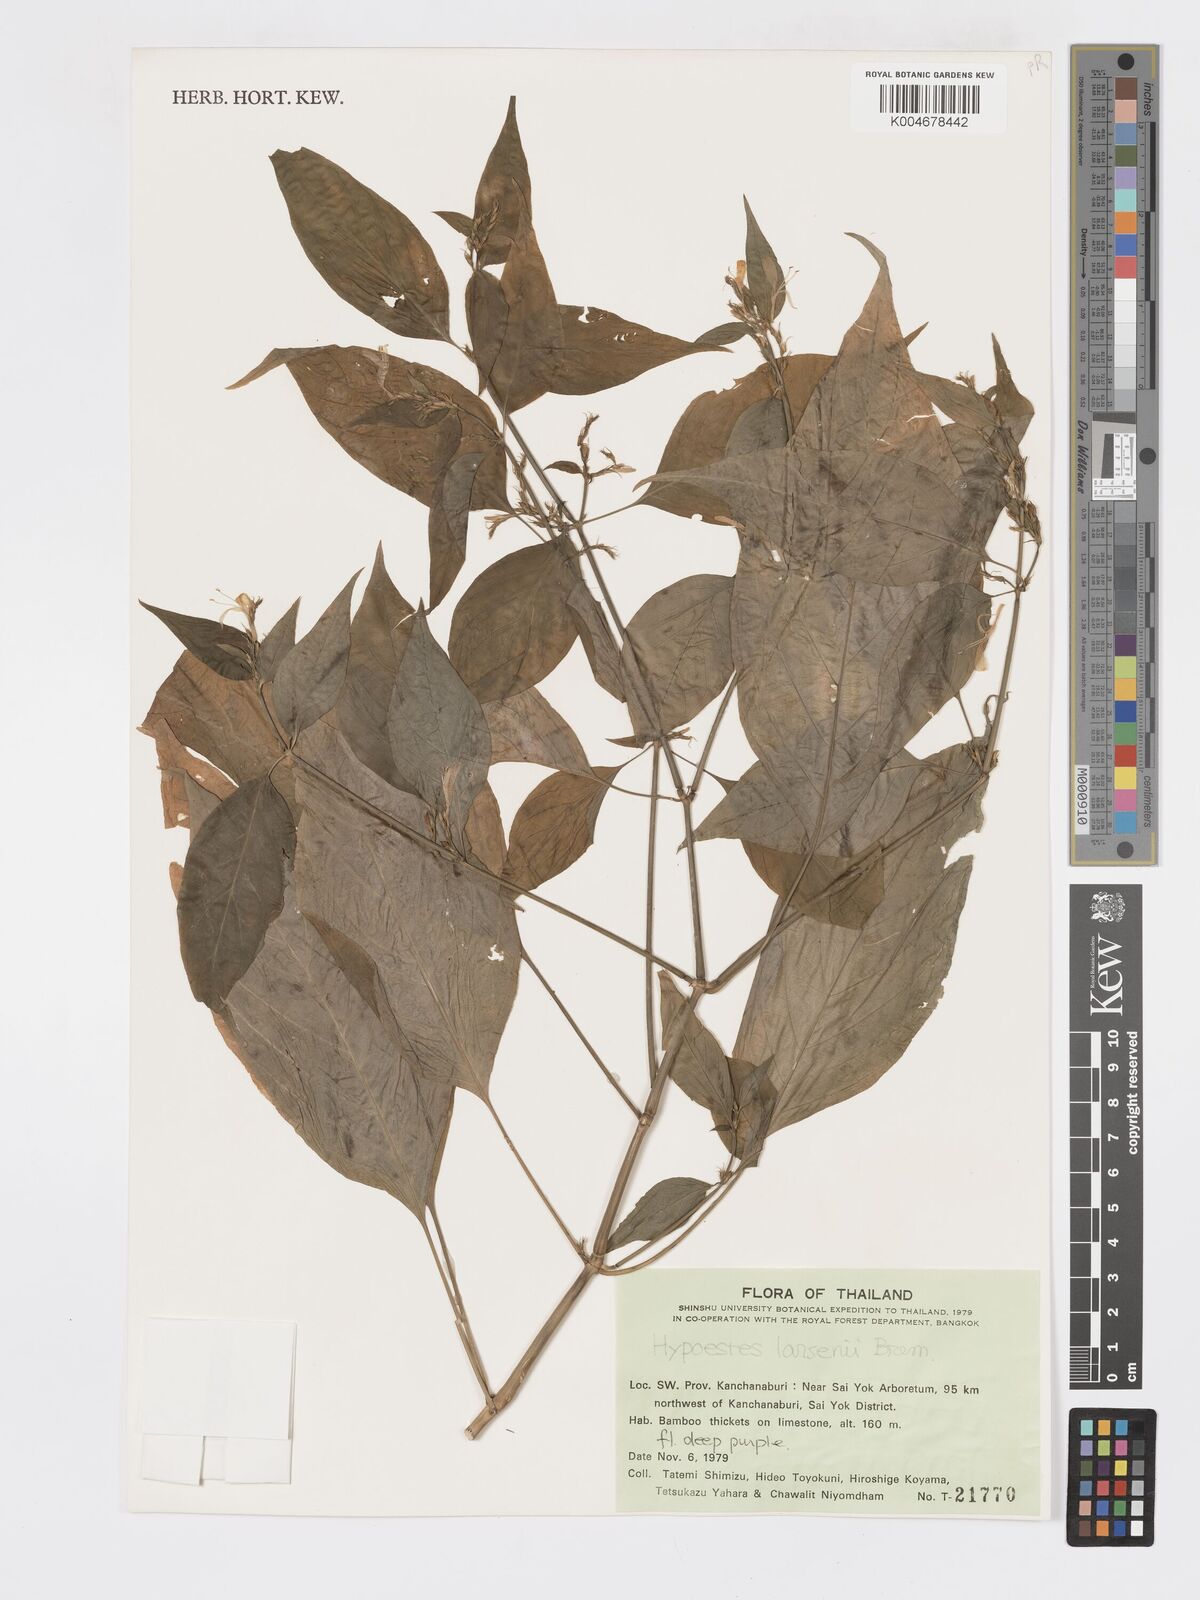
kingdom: Plantae
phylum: Tracheophyta
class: Magnoliopsida
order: Lamiales
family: Acanthaceae
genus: Hypoestes
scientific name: Hypoestes larsenii
